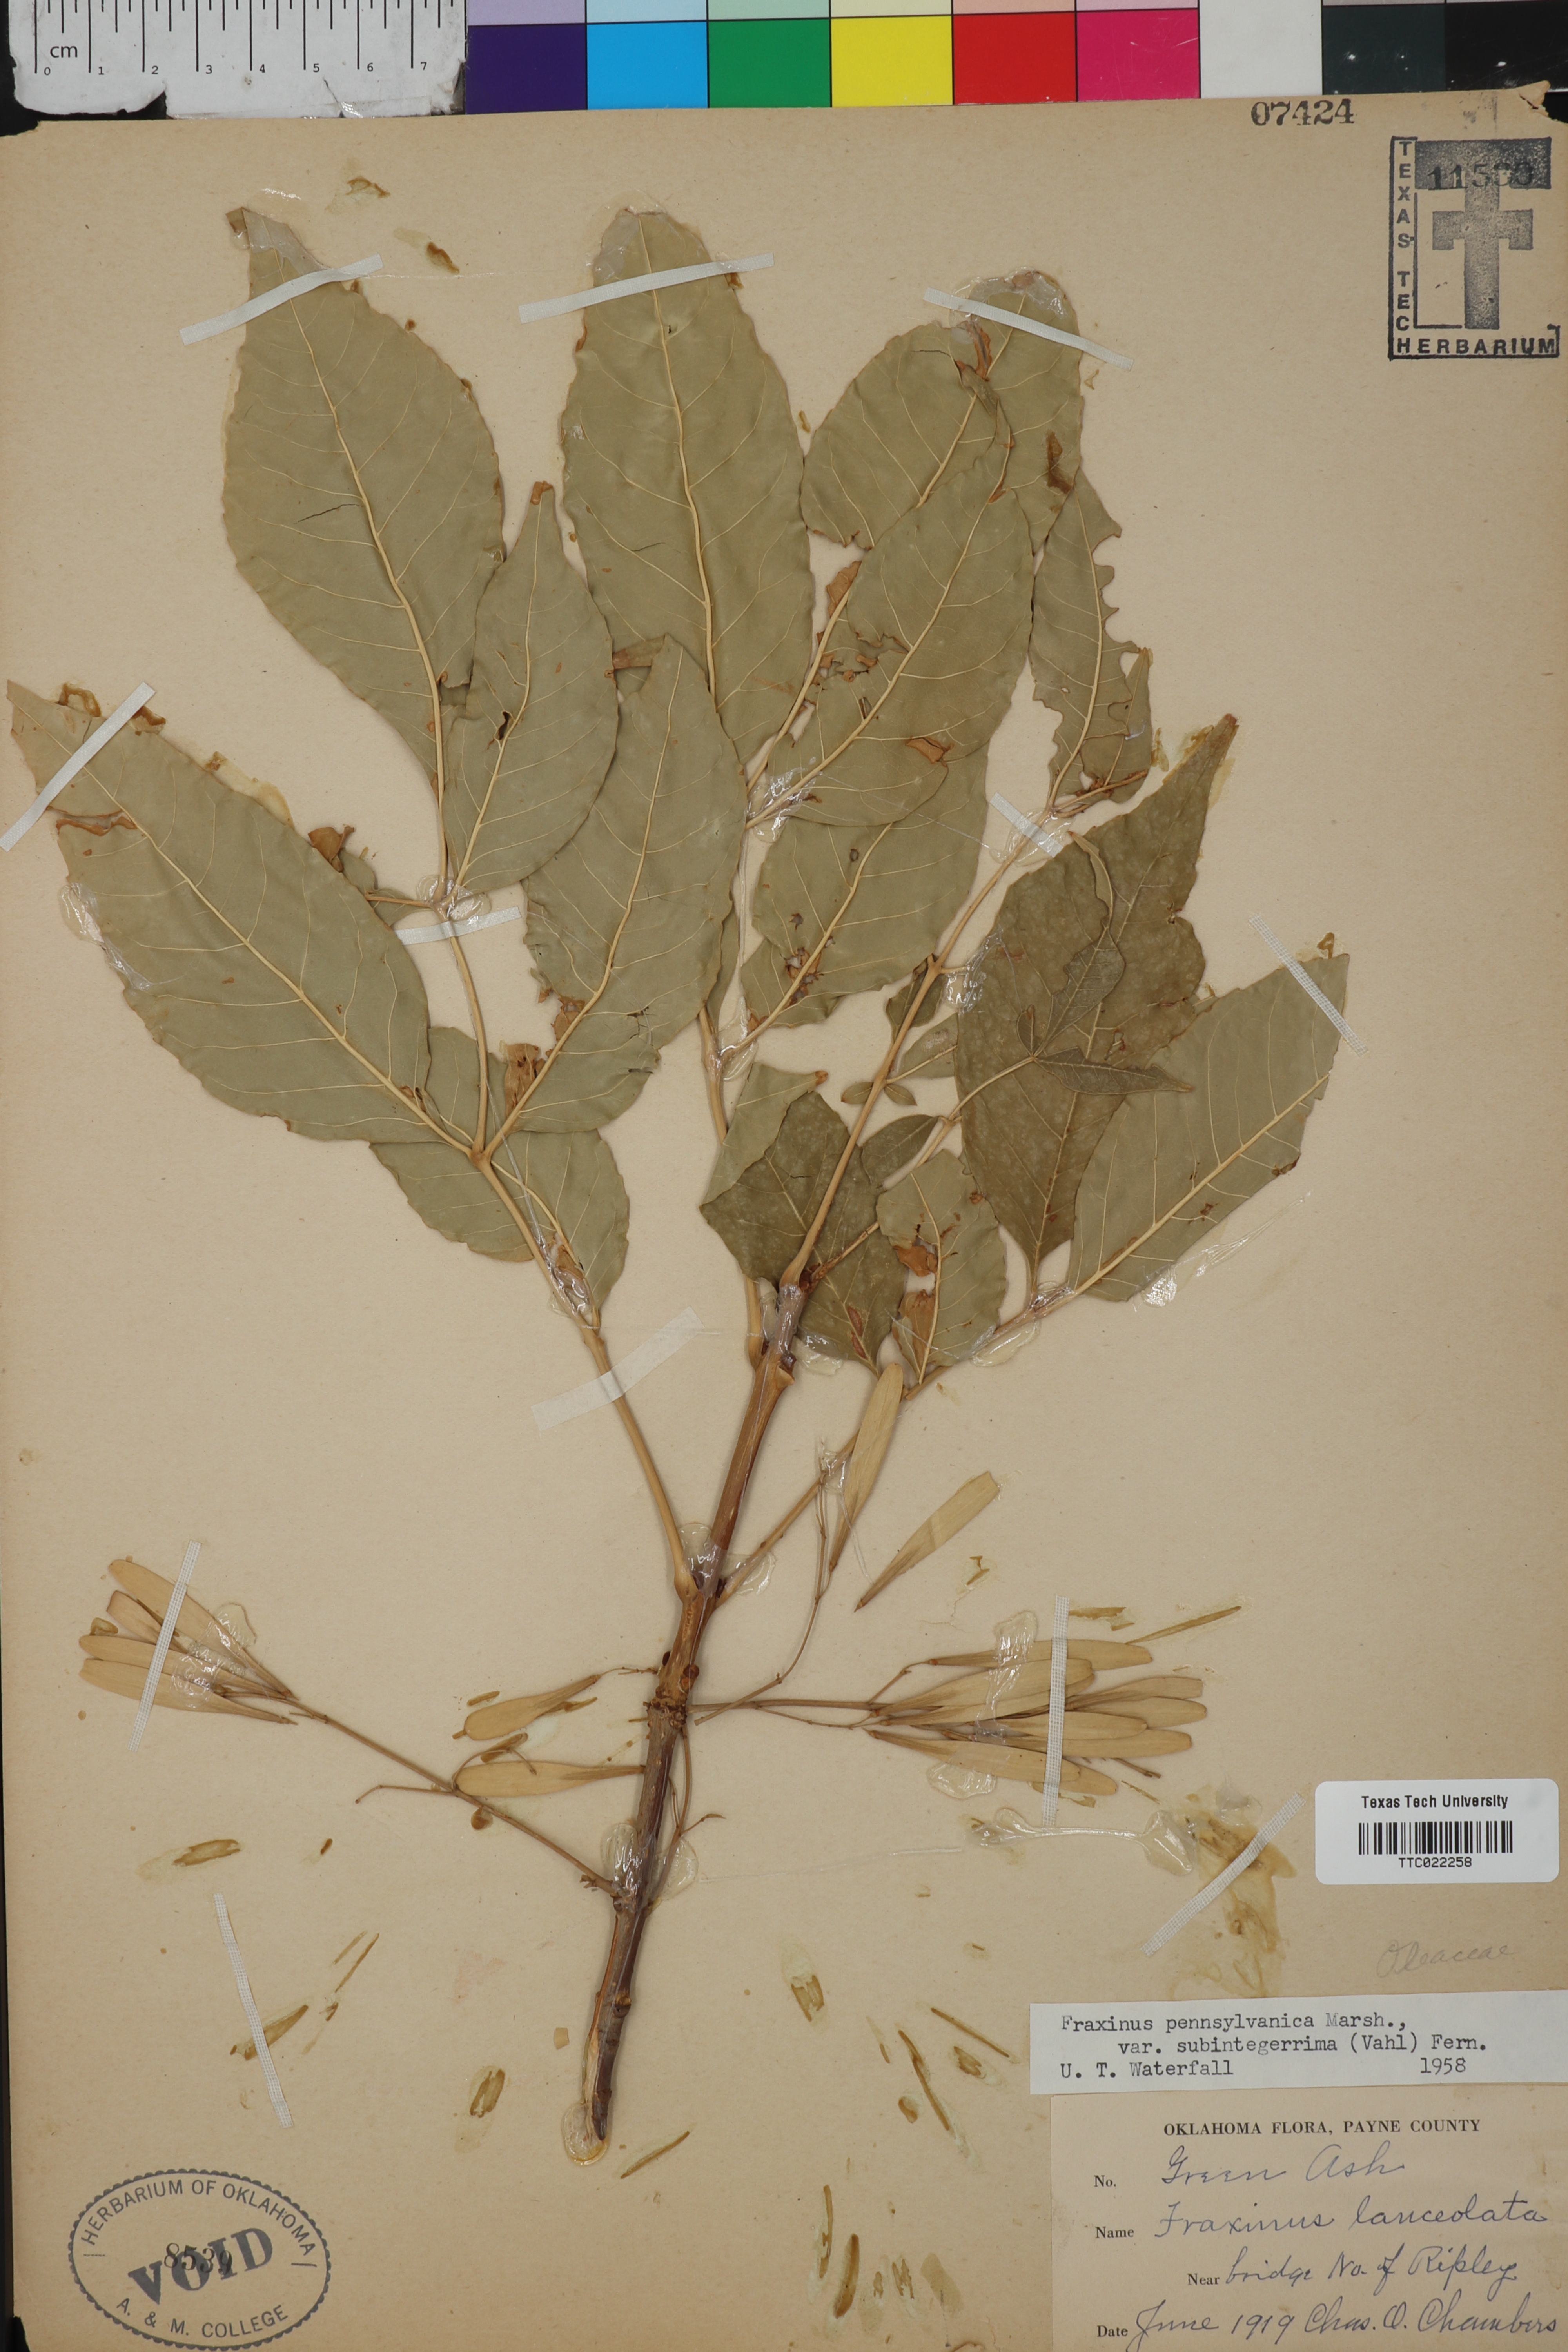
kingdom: Plantae
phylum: Tracheophyta
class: Magnoliopsida
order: Lamiales
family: Oleaceae
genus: Fraxinus
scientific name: Fraxinus pennsylvanica
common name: Green ash
